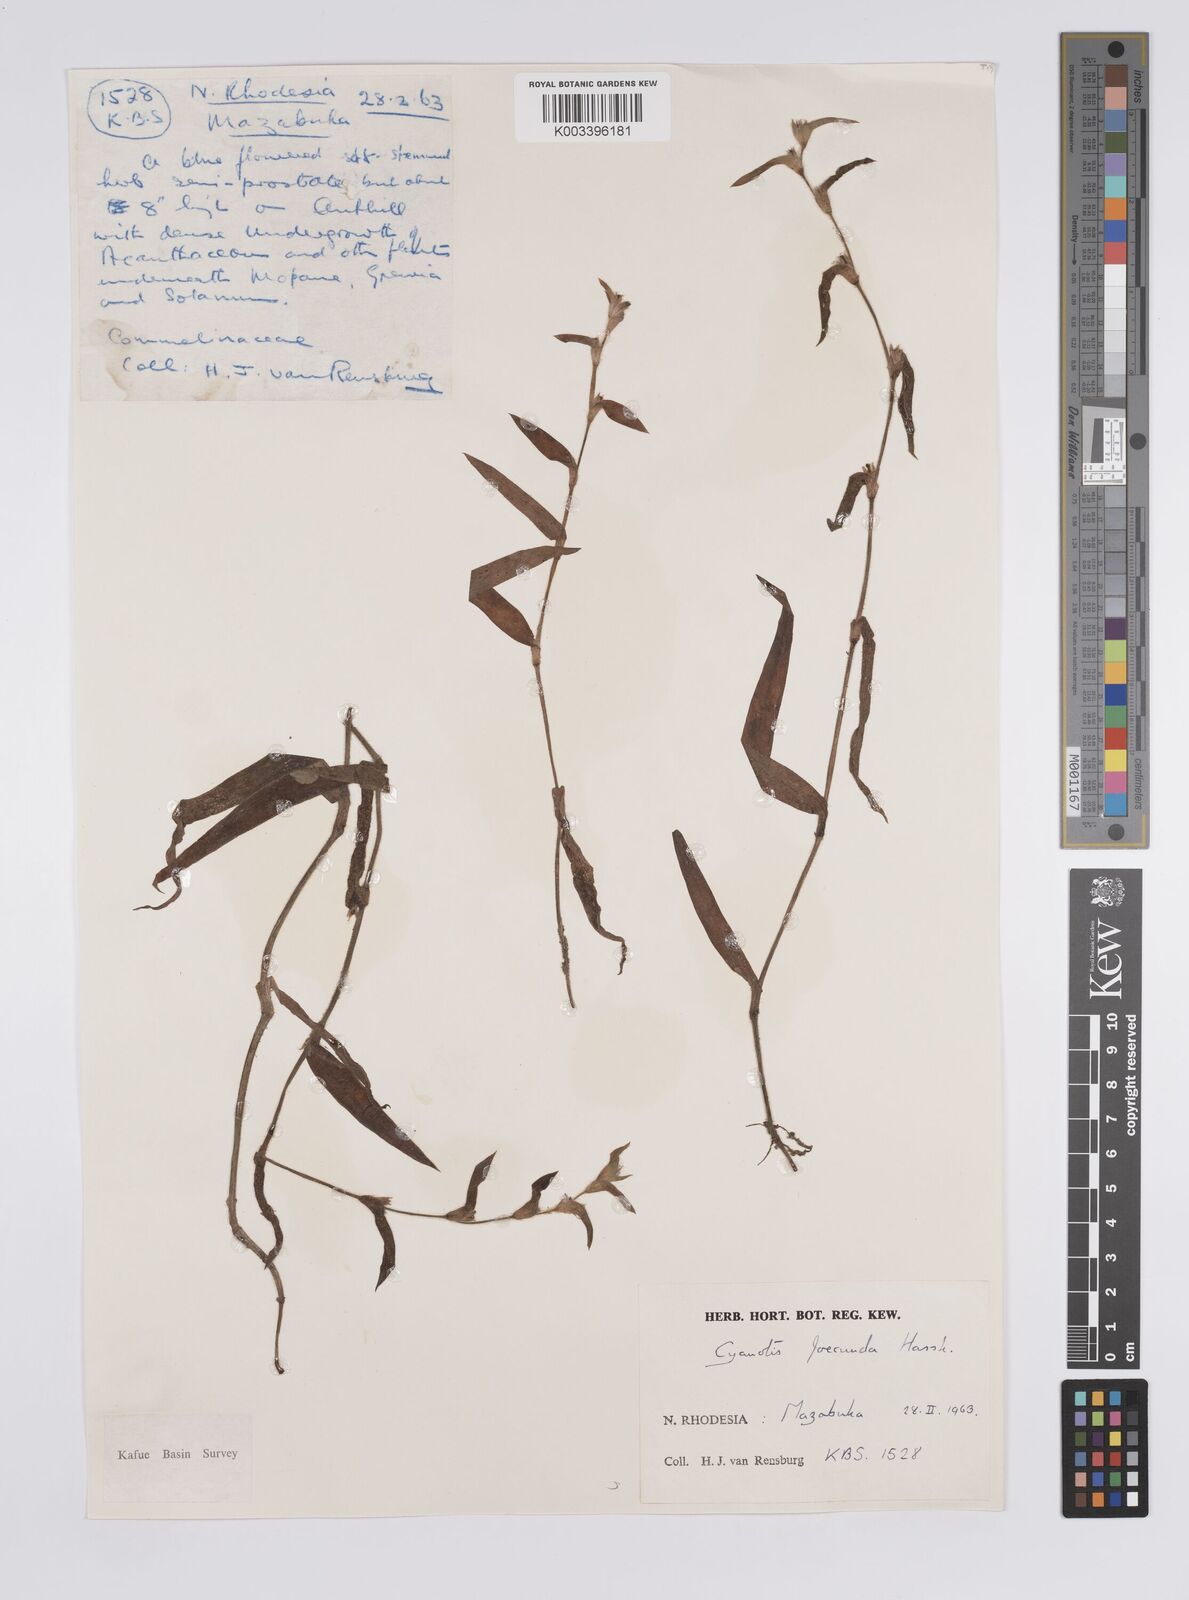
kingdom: Plantae
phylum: Tracheophyta
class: Liliopsida
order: Commelinales
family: Commelinaceae
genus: Cyanotis
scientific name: Cyanotis foecunda
